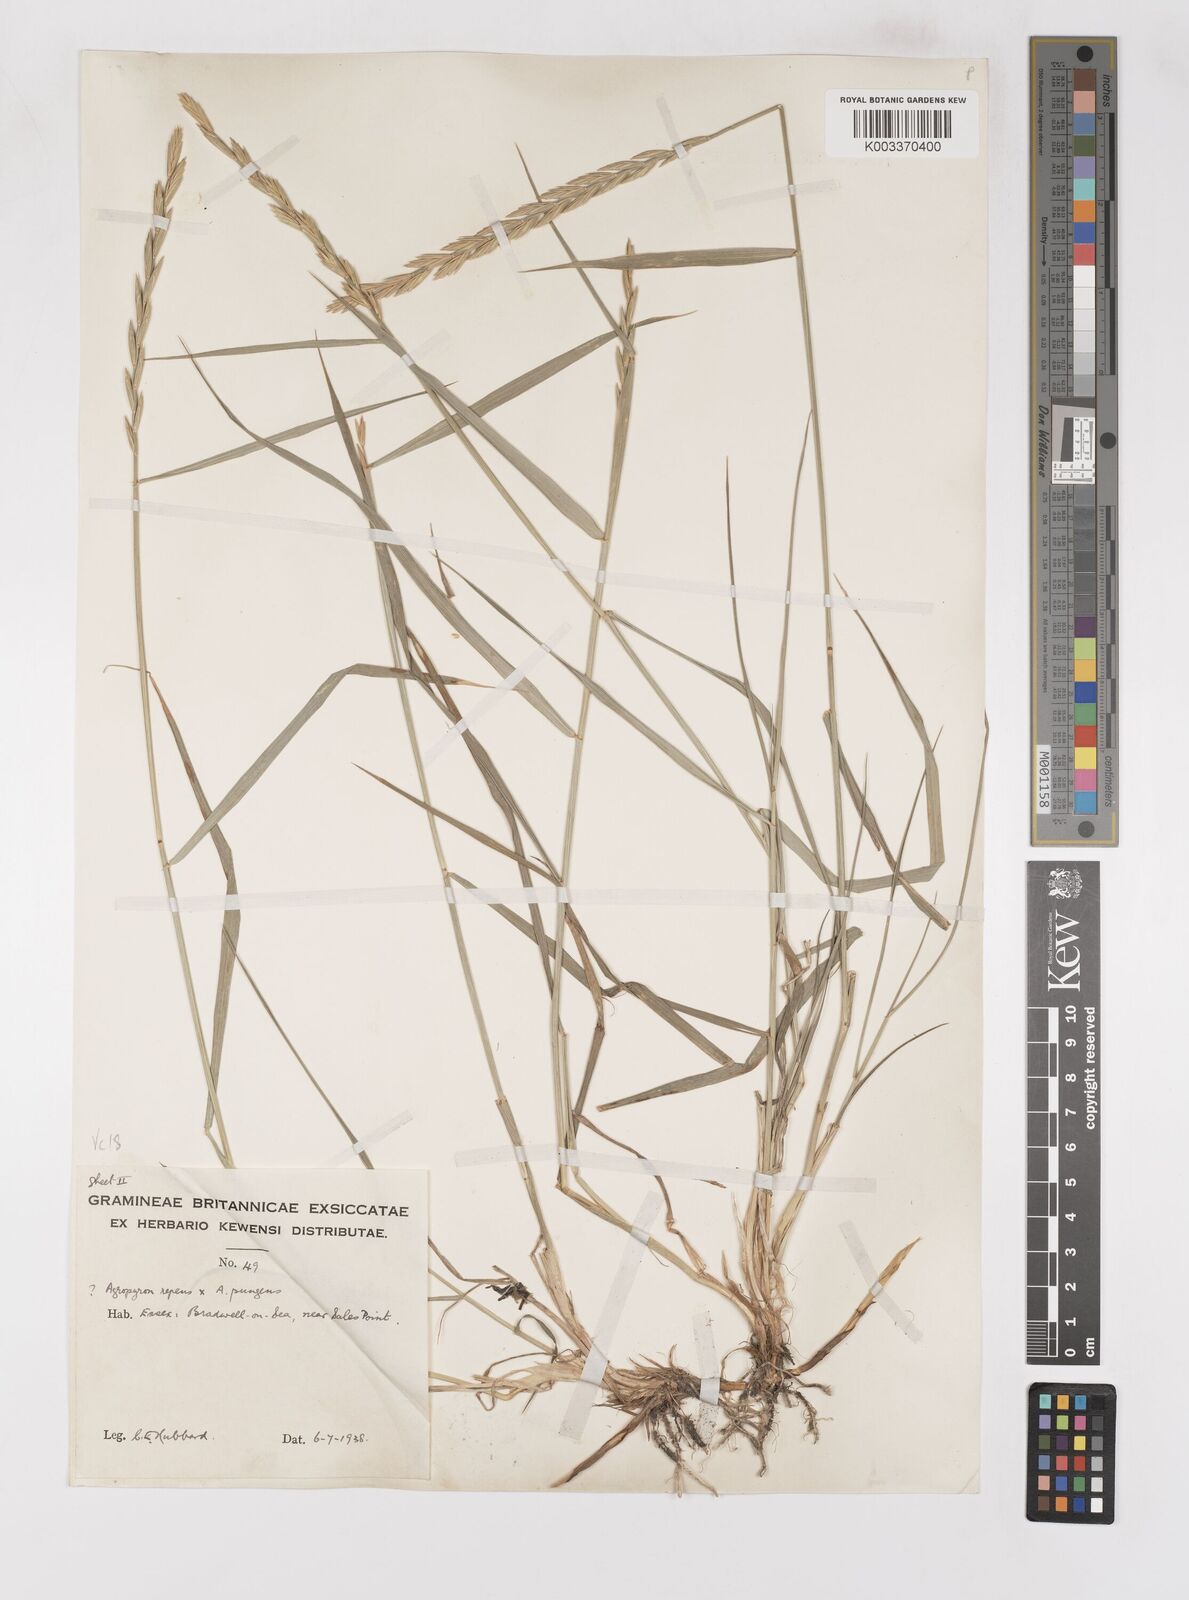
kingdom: Plantae
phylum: Tracheophyta
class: Liliopsida
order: Poales
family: Poaceae
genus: Elymus
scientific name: Elymus oliveri
